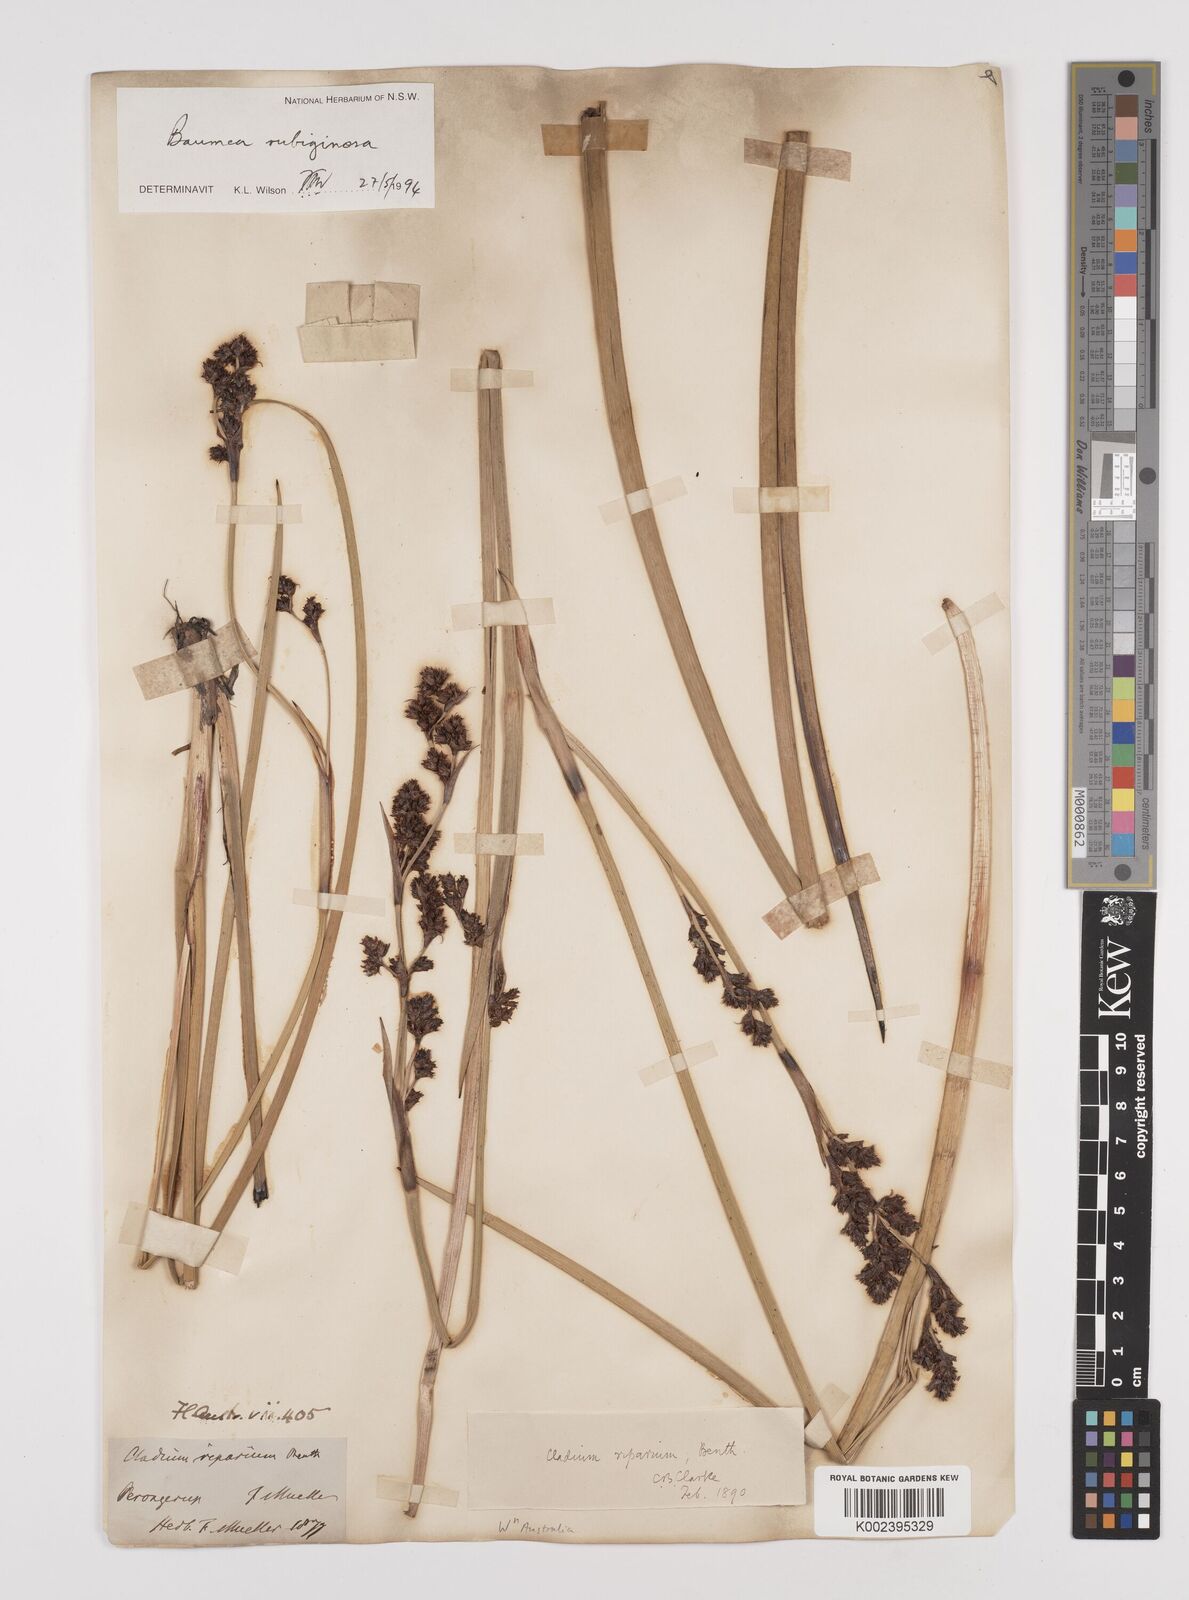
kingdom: Plantae
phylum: Tracheophyta
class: Liliopsida
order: Poales
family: Cyperaceae
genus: Machaerina
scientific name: Machaerina rubiginosa
